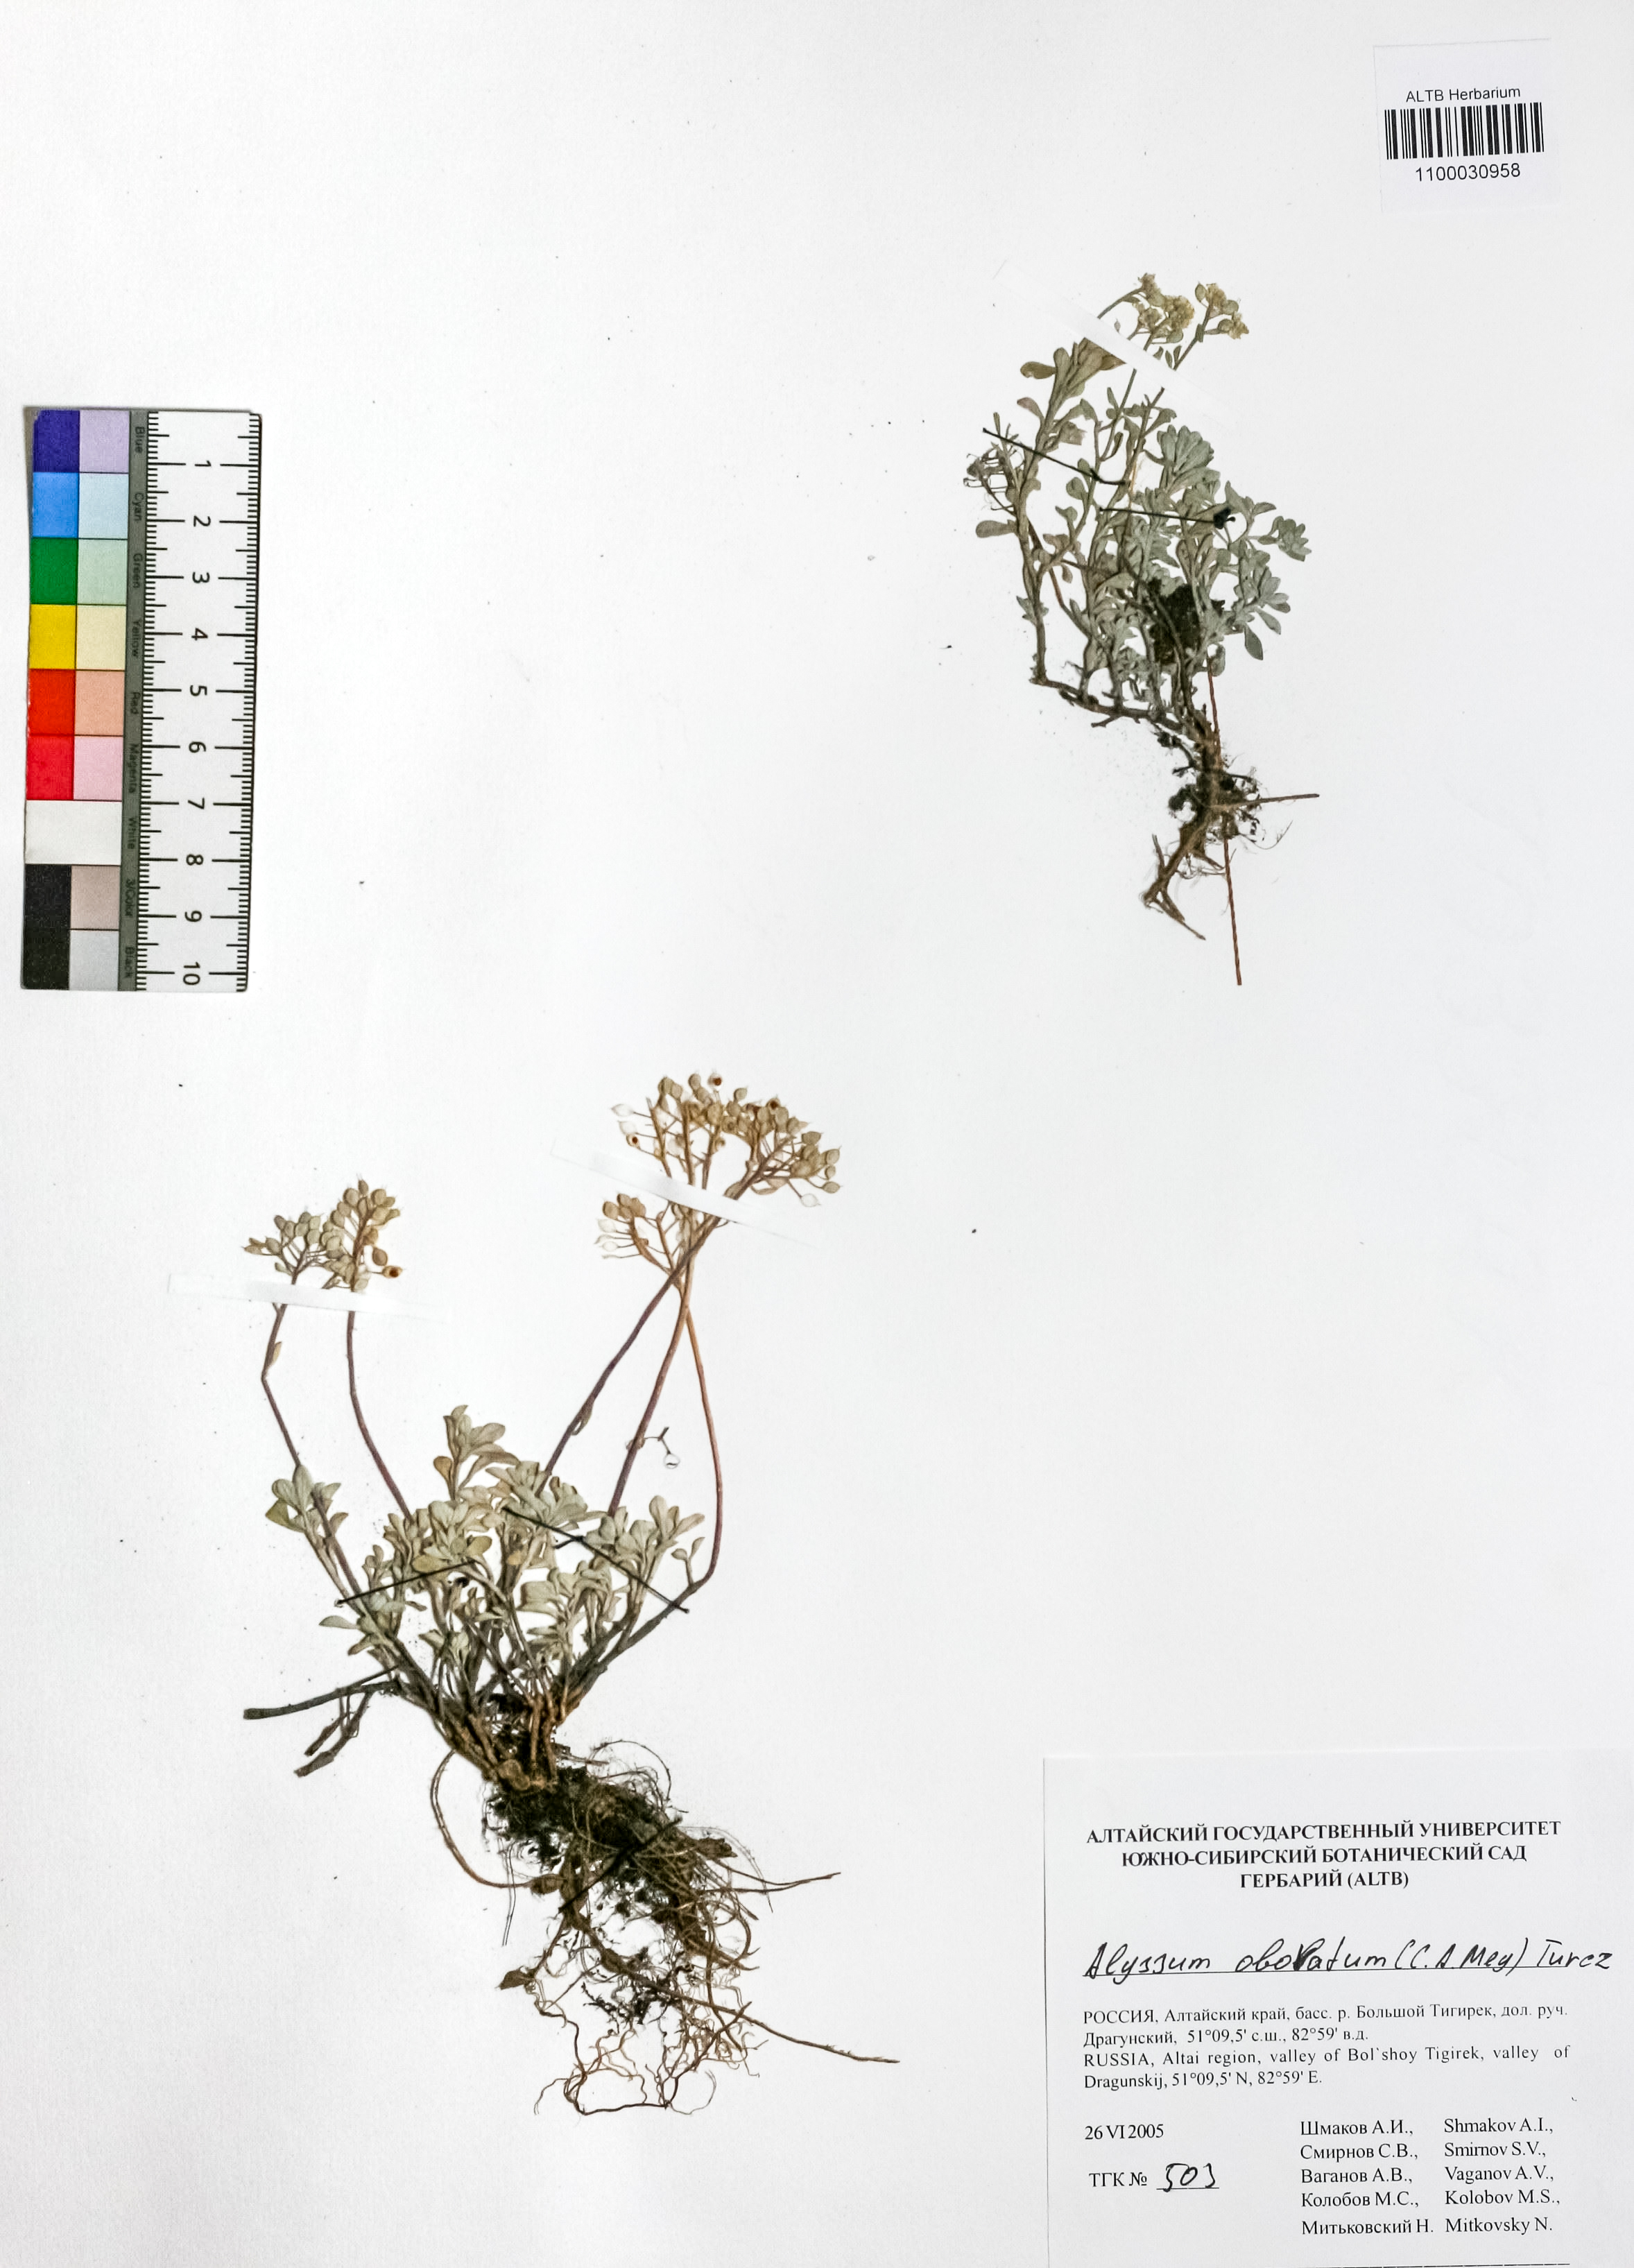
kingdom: Plantae
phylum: Tracheophyta
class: Magnoliopsida
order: Brassicales
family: Brassicaceae
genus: Odontarrhena
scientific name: Odontarrhena obovata
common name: American alyssum
